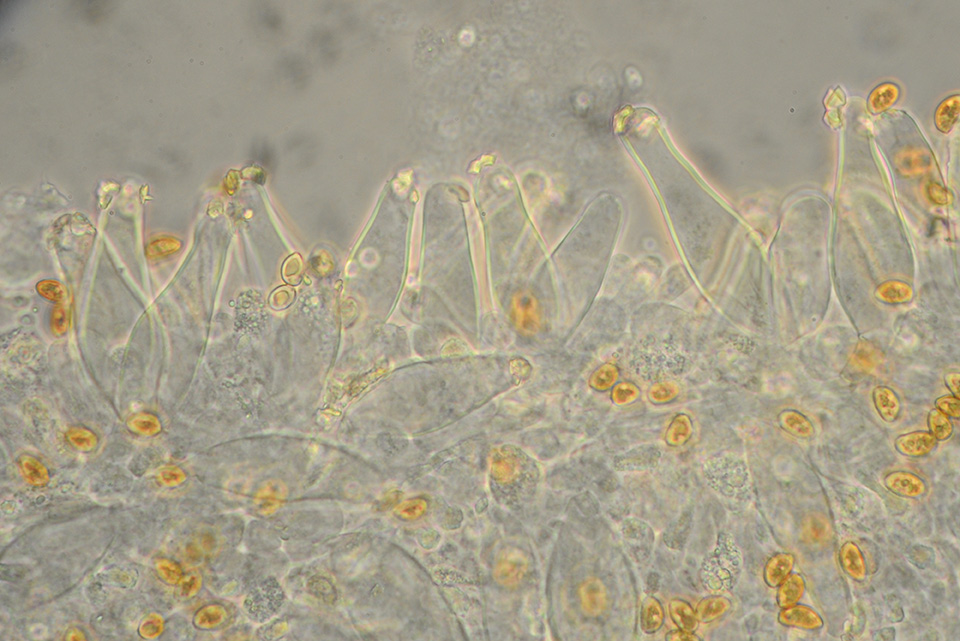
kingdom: Fungi
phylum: Basidiomycota
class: Agaricomycetes
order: Agaricales
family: Inocybaceae
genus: Inocybe
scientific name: Inocybe langei
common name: Langes trævlhat
